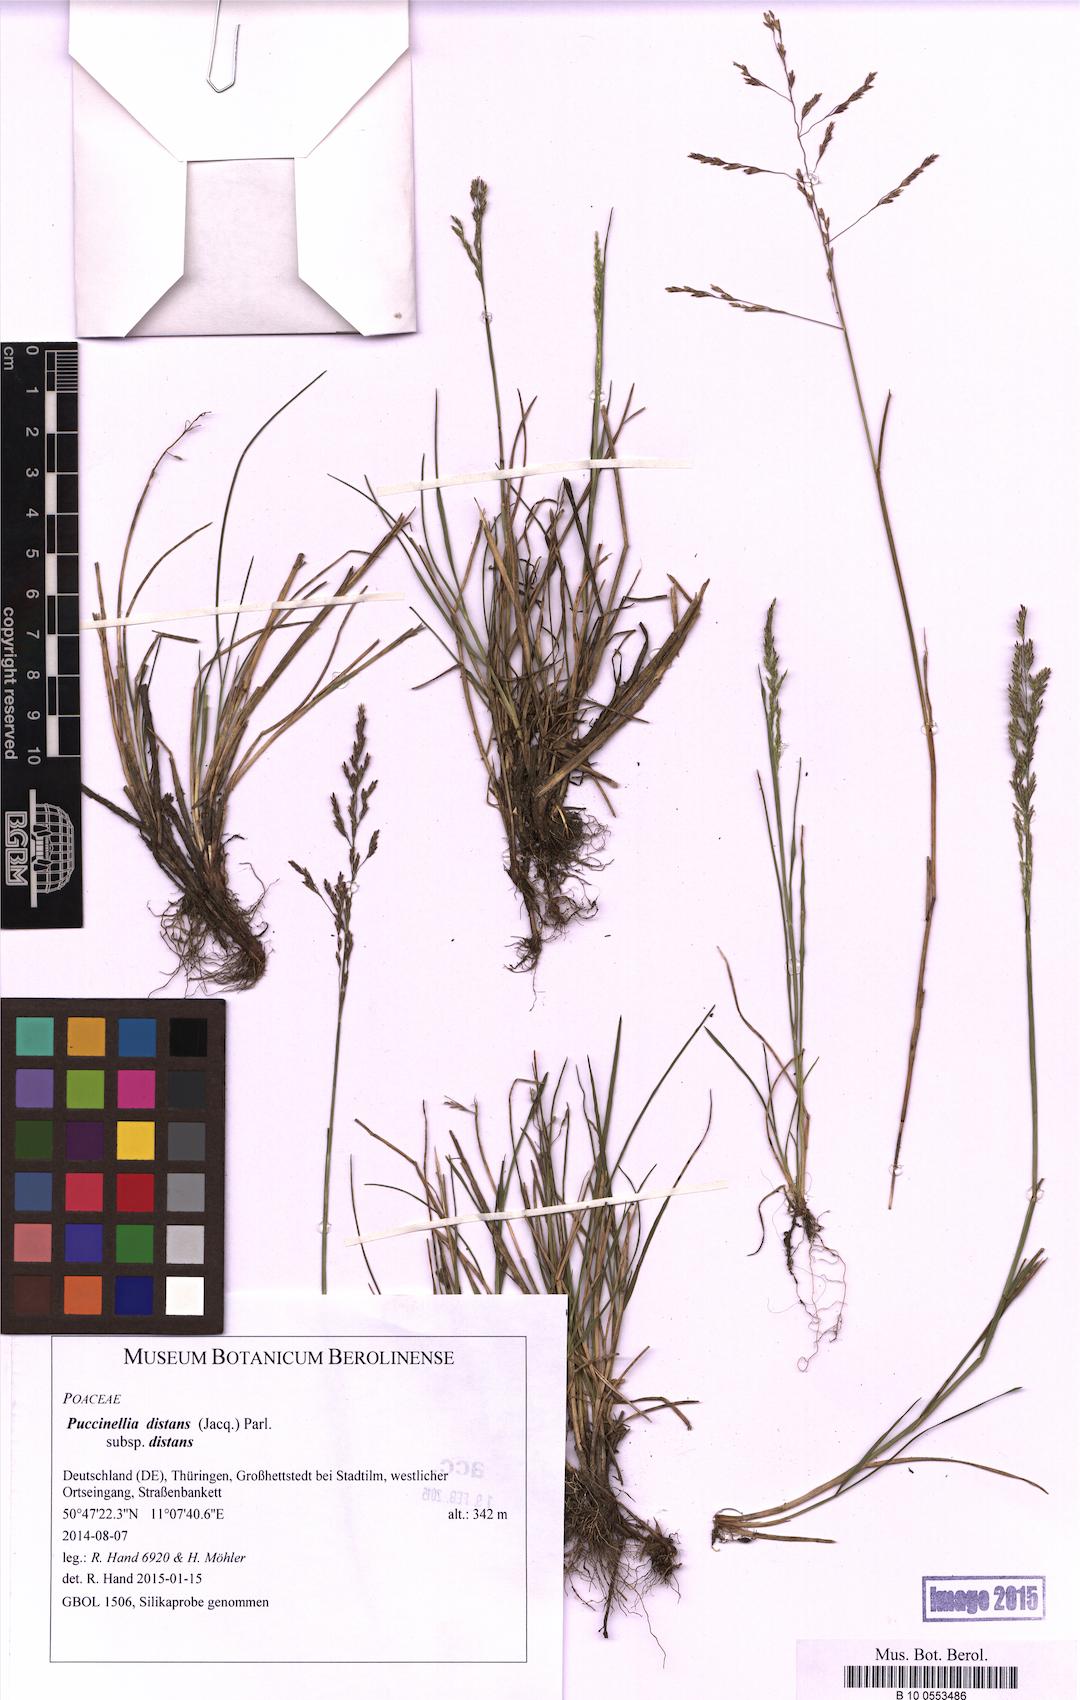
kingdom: Plantae
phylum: Tracheophyta
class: Liliopsida
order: Poales
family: Poaceae
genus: Puccinellia
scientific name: Puccinellia distans
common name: Weeping alkaligrass
